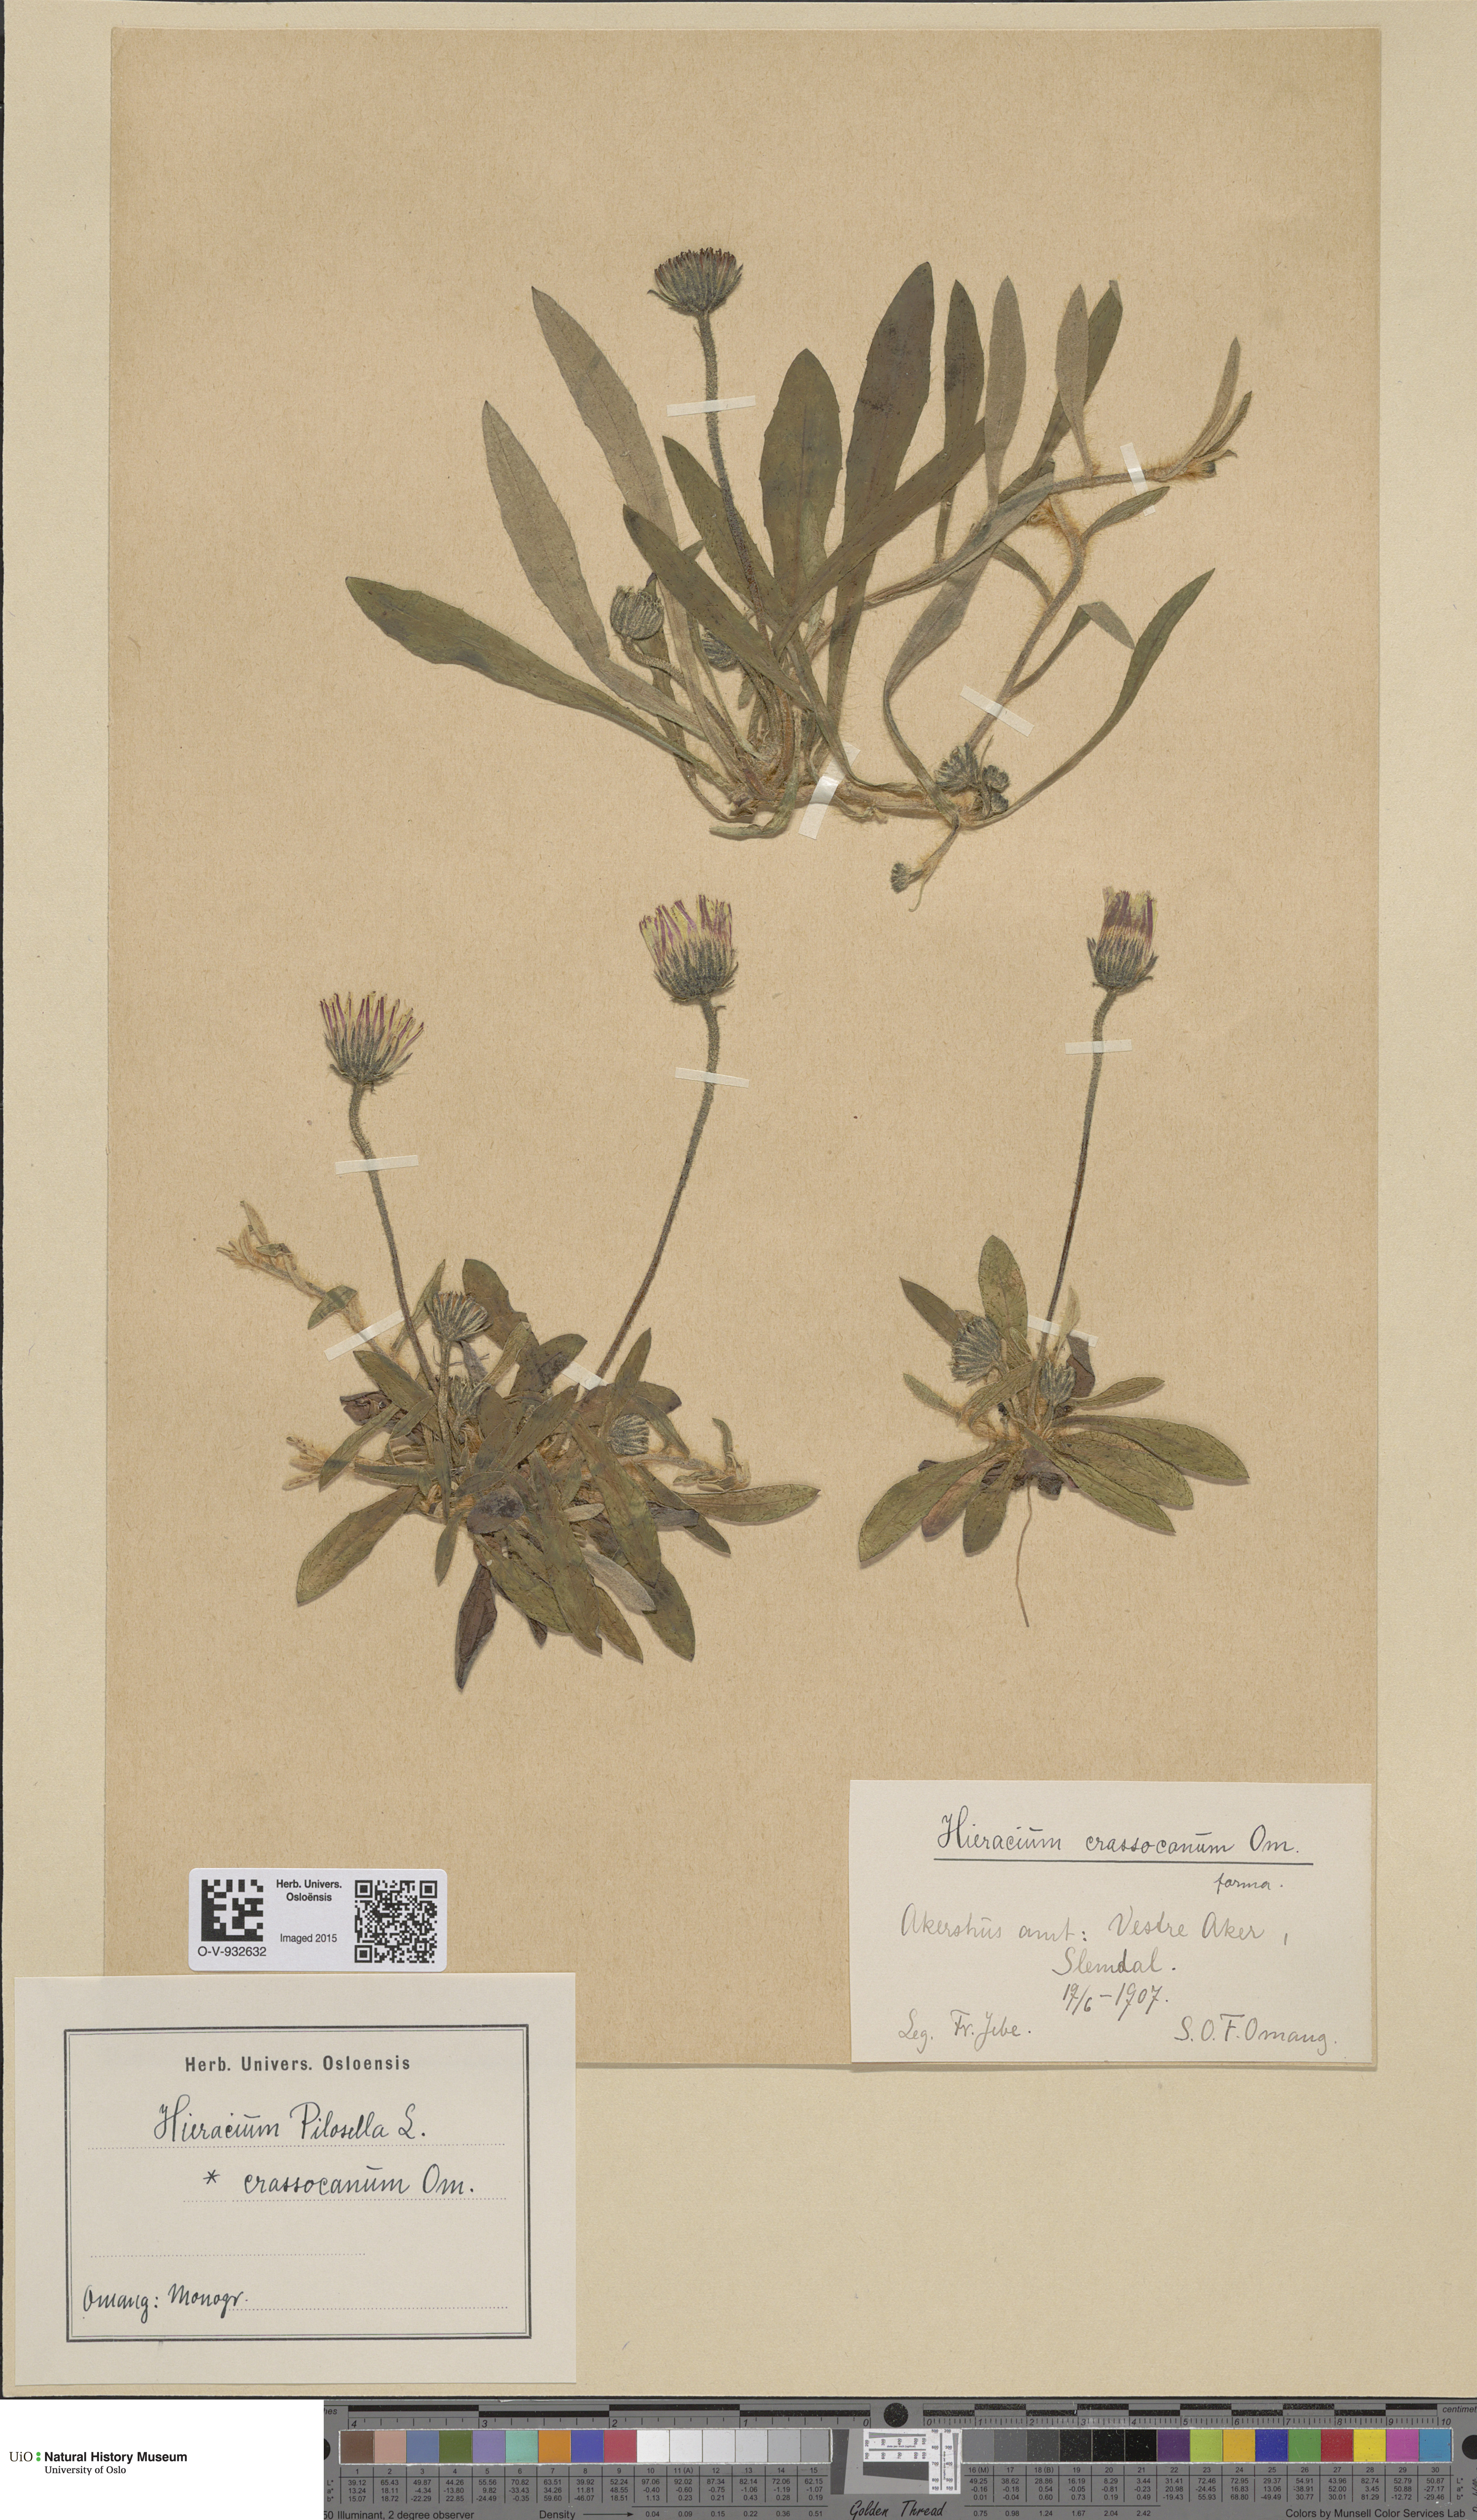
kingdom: Plantae
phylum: Tracheophyta
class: Magnoliopsida
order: Asterales
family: Asteraceae
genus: Pilosella
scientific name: Pilosella officinarum
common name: Mouse-ear hawkweed
